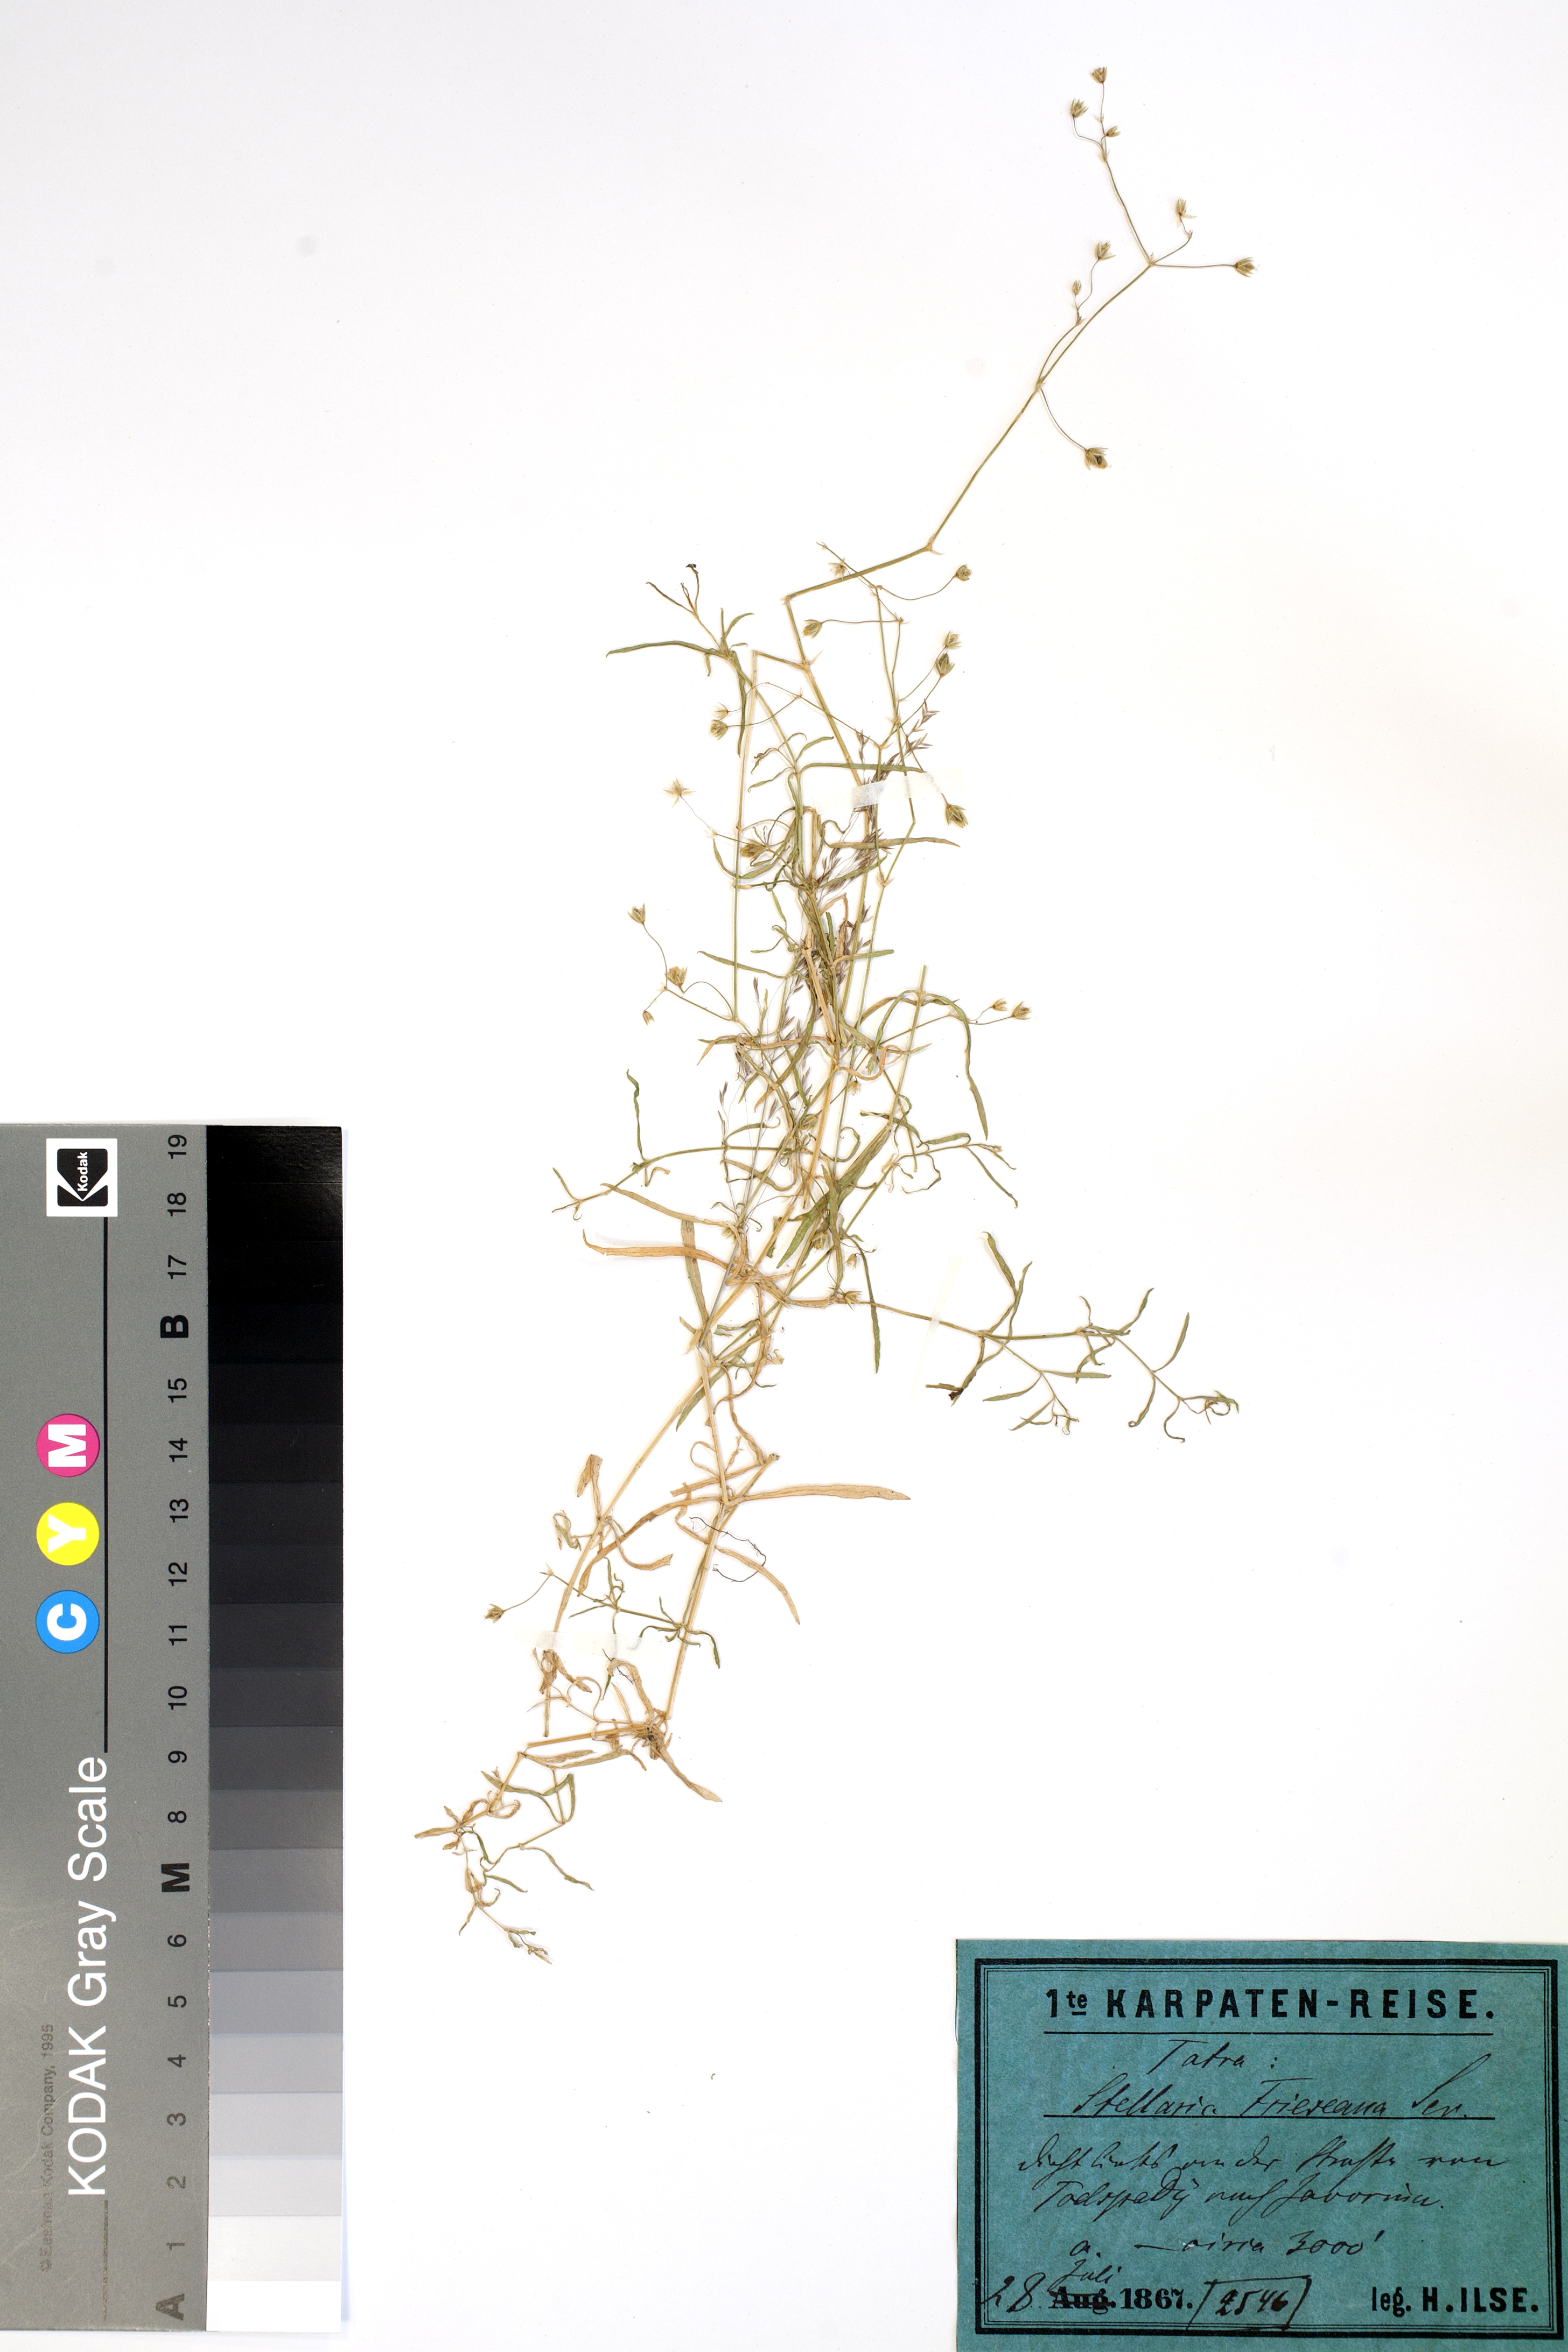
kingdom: Plantae
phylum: Tracheophyta
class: Magnoliopsida
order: Caryophyllales
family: Caryophyllaceae
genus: Stellaria
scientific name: Stellaria longifolia
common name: Long-leaved chickweed
